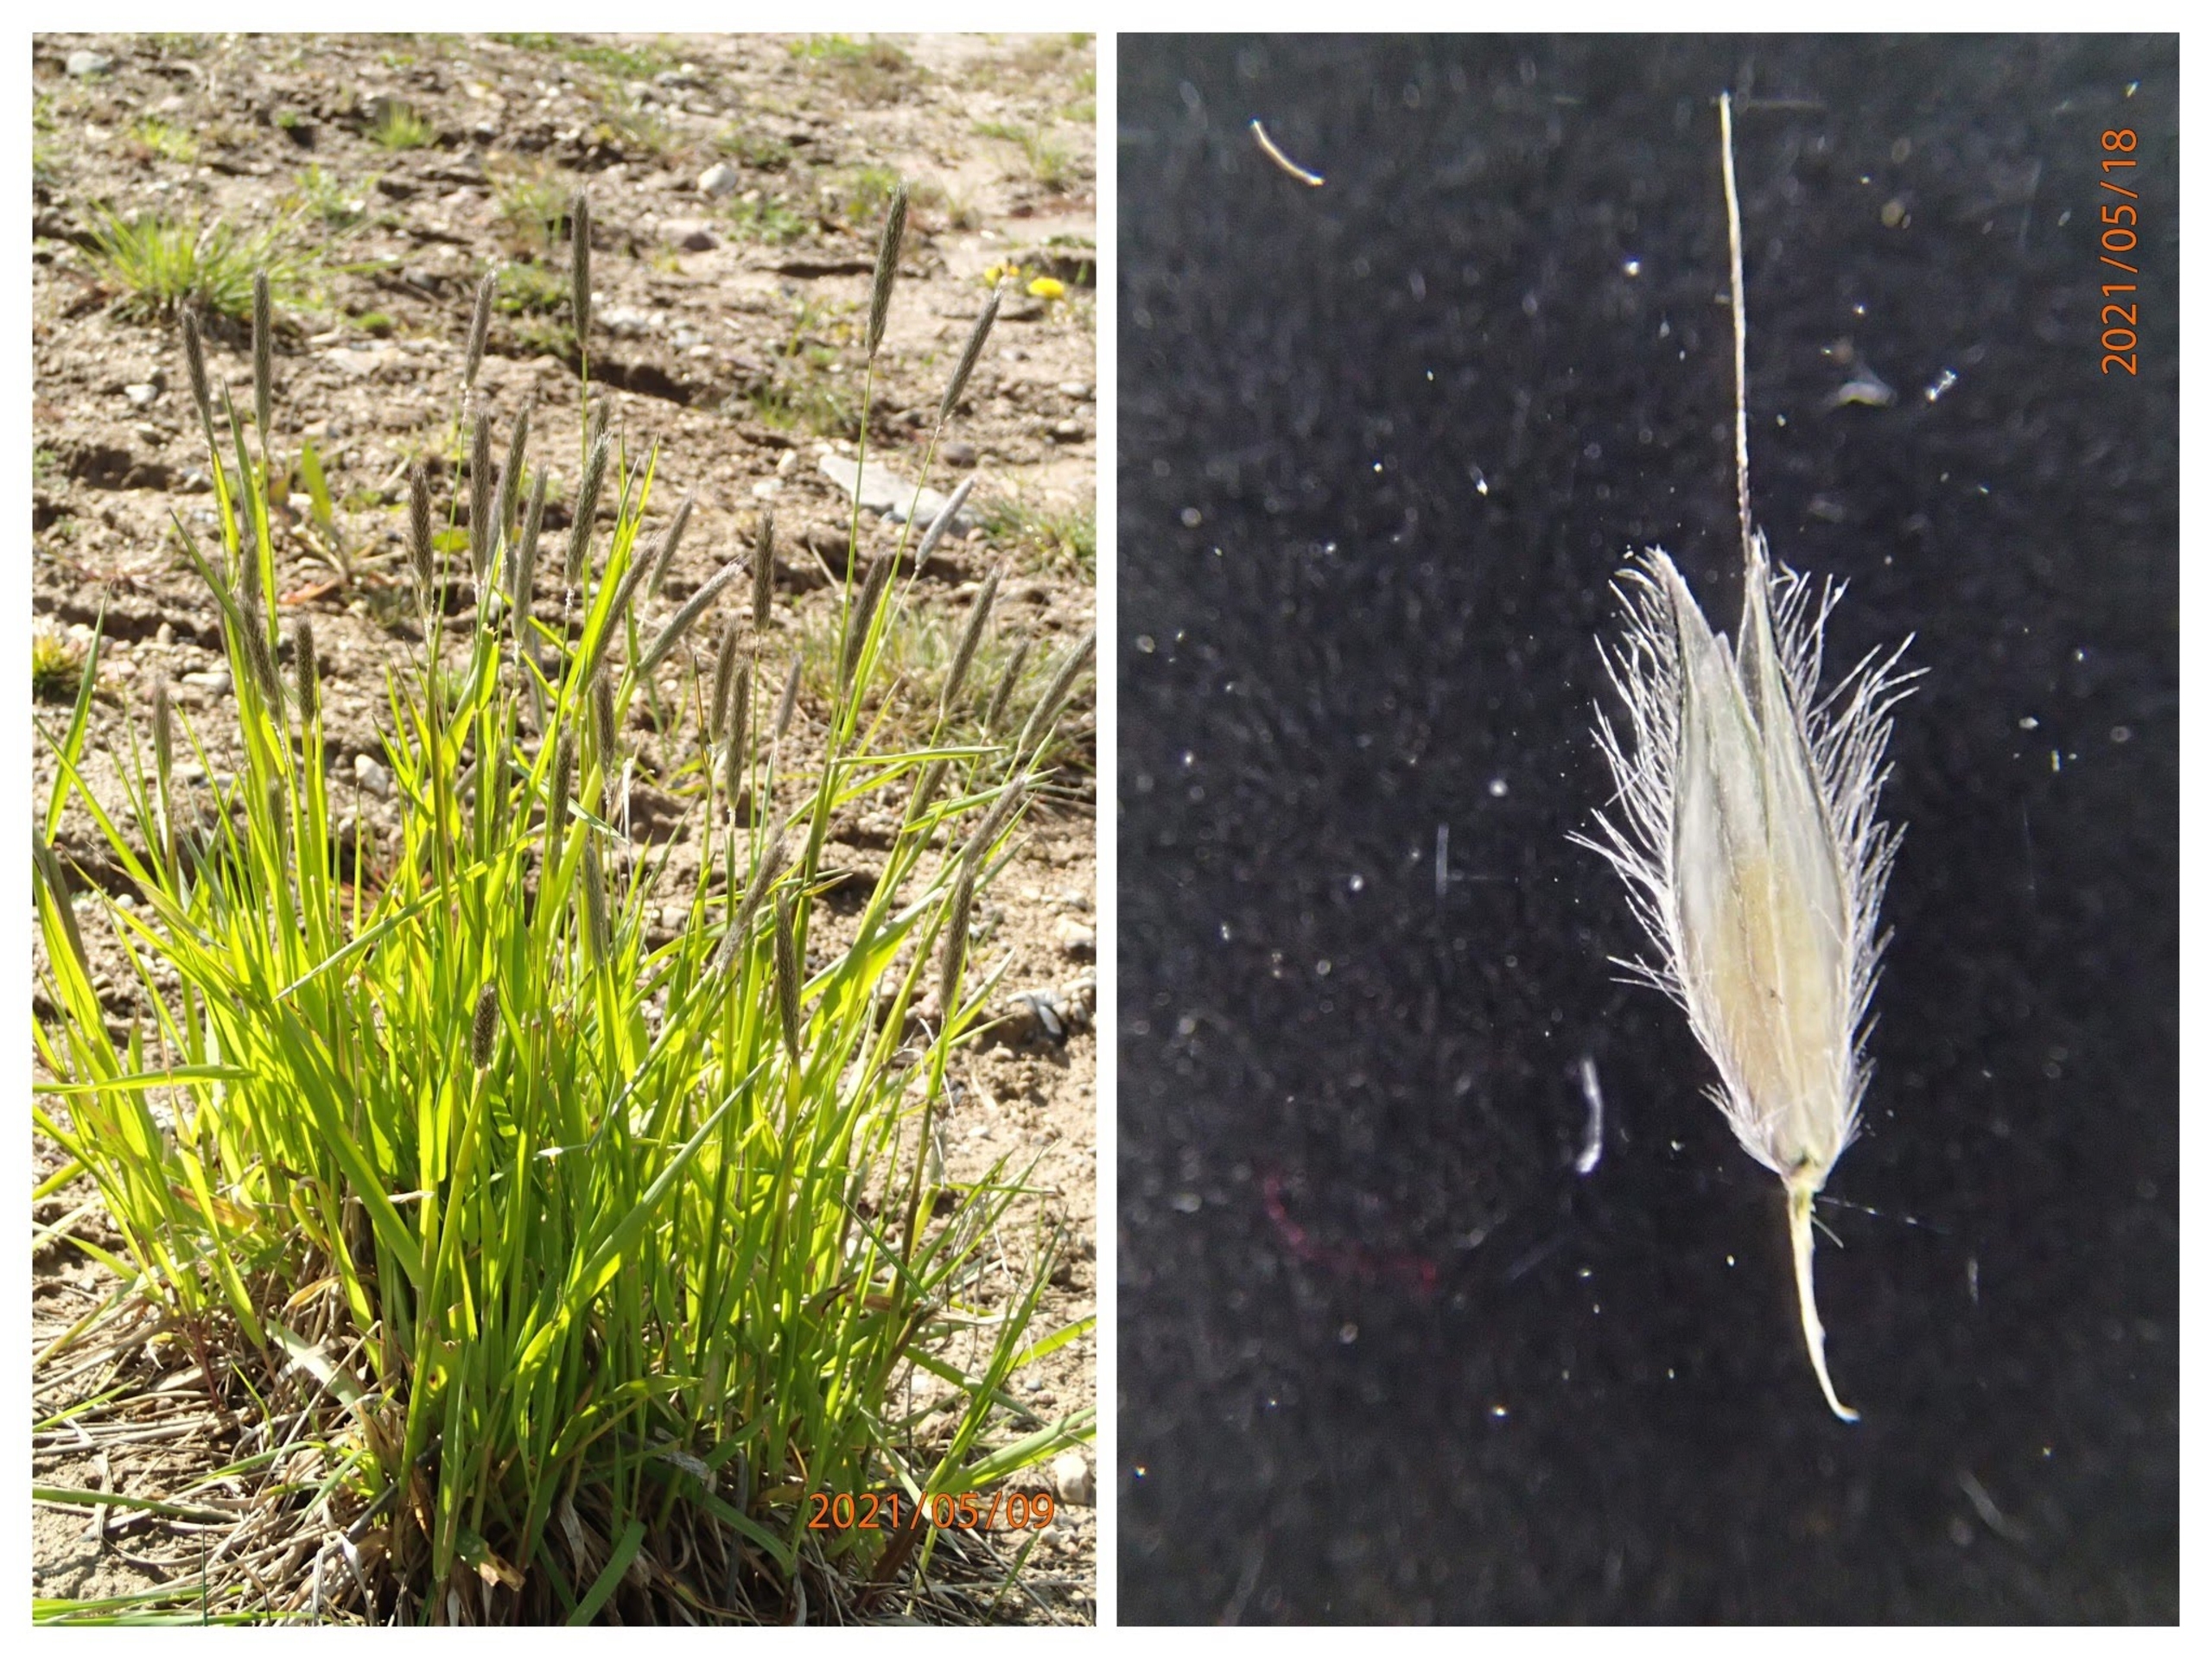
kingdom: Plantae
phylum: Tracheophyta
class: Liliopsida
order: Poales
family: Poaceae
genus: Alopecurus
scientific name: Alopecurus pratensis
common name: Eng-rævehale
